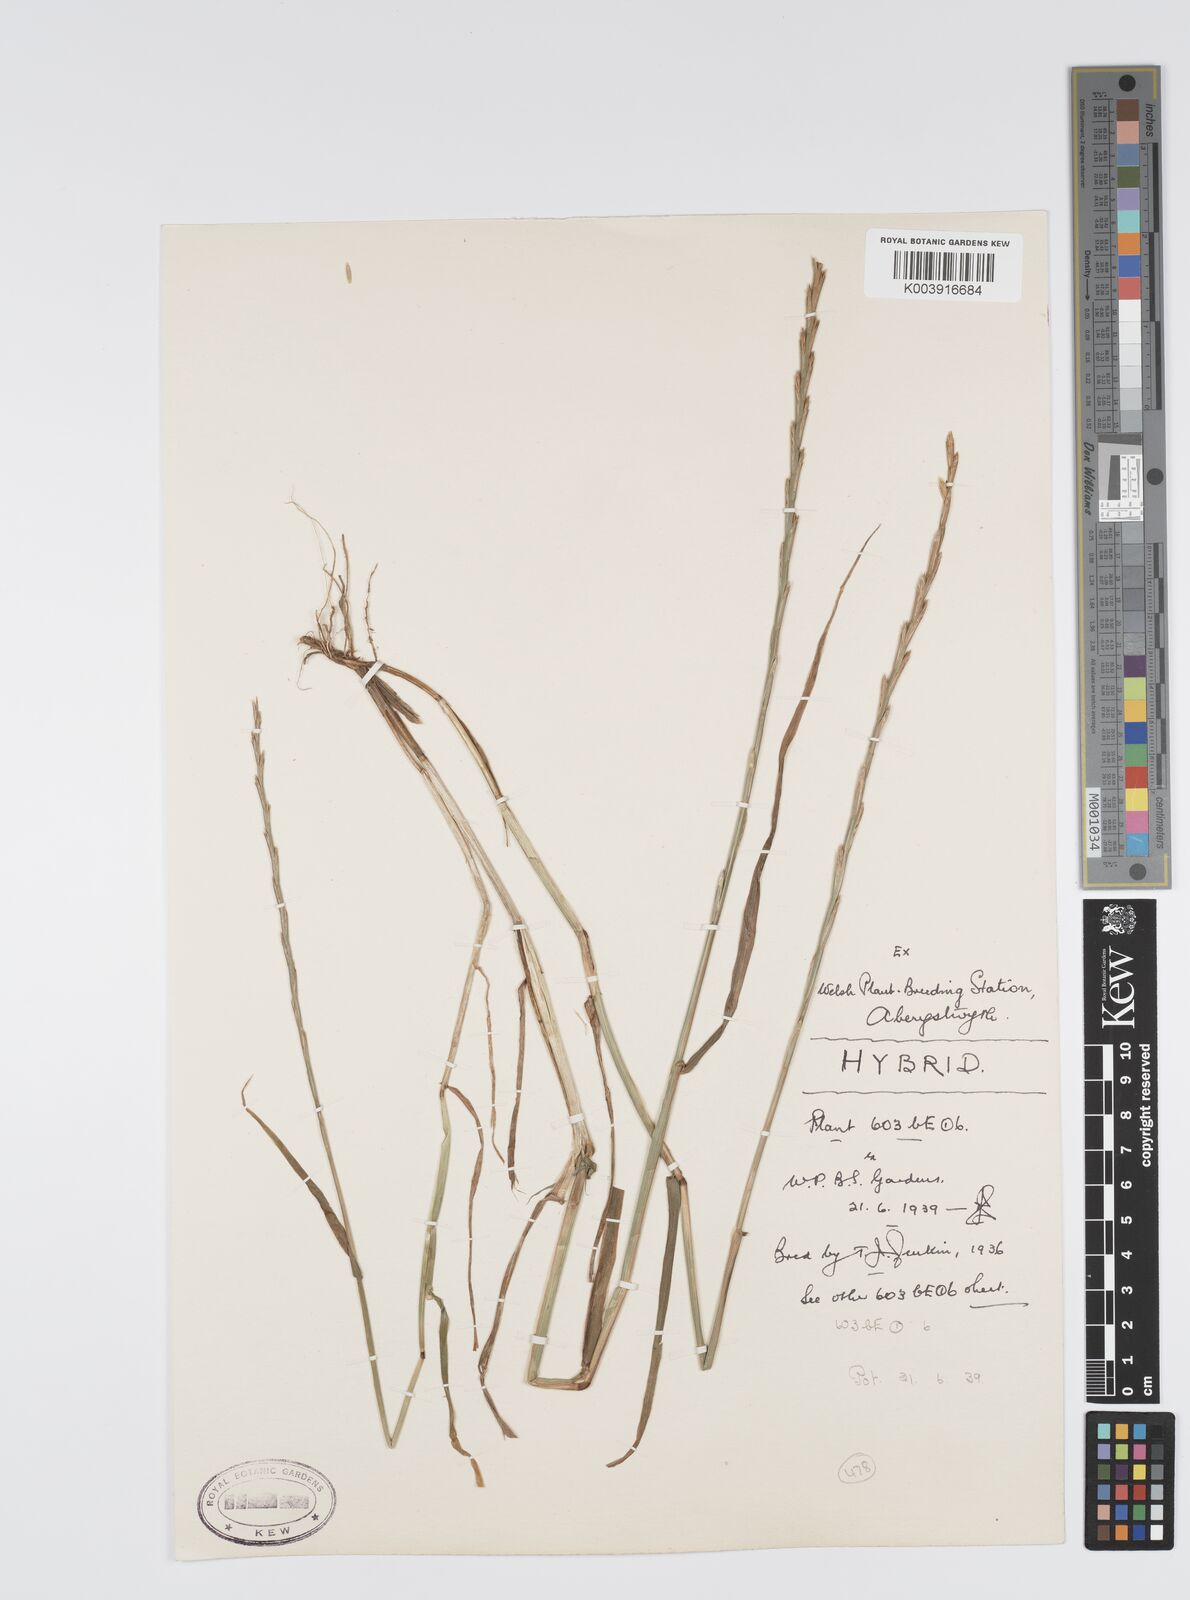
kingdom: Plantae
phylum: Tracheophyta
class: Liliopsida
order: Poales
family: Poaceae
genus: Lolium
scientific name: Lolium perenne
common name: Perennial ryegrass
